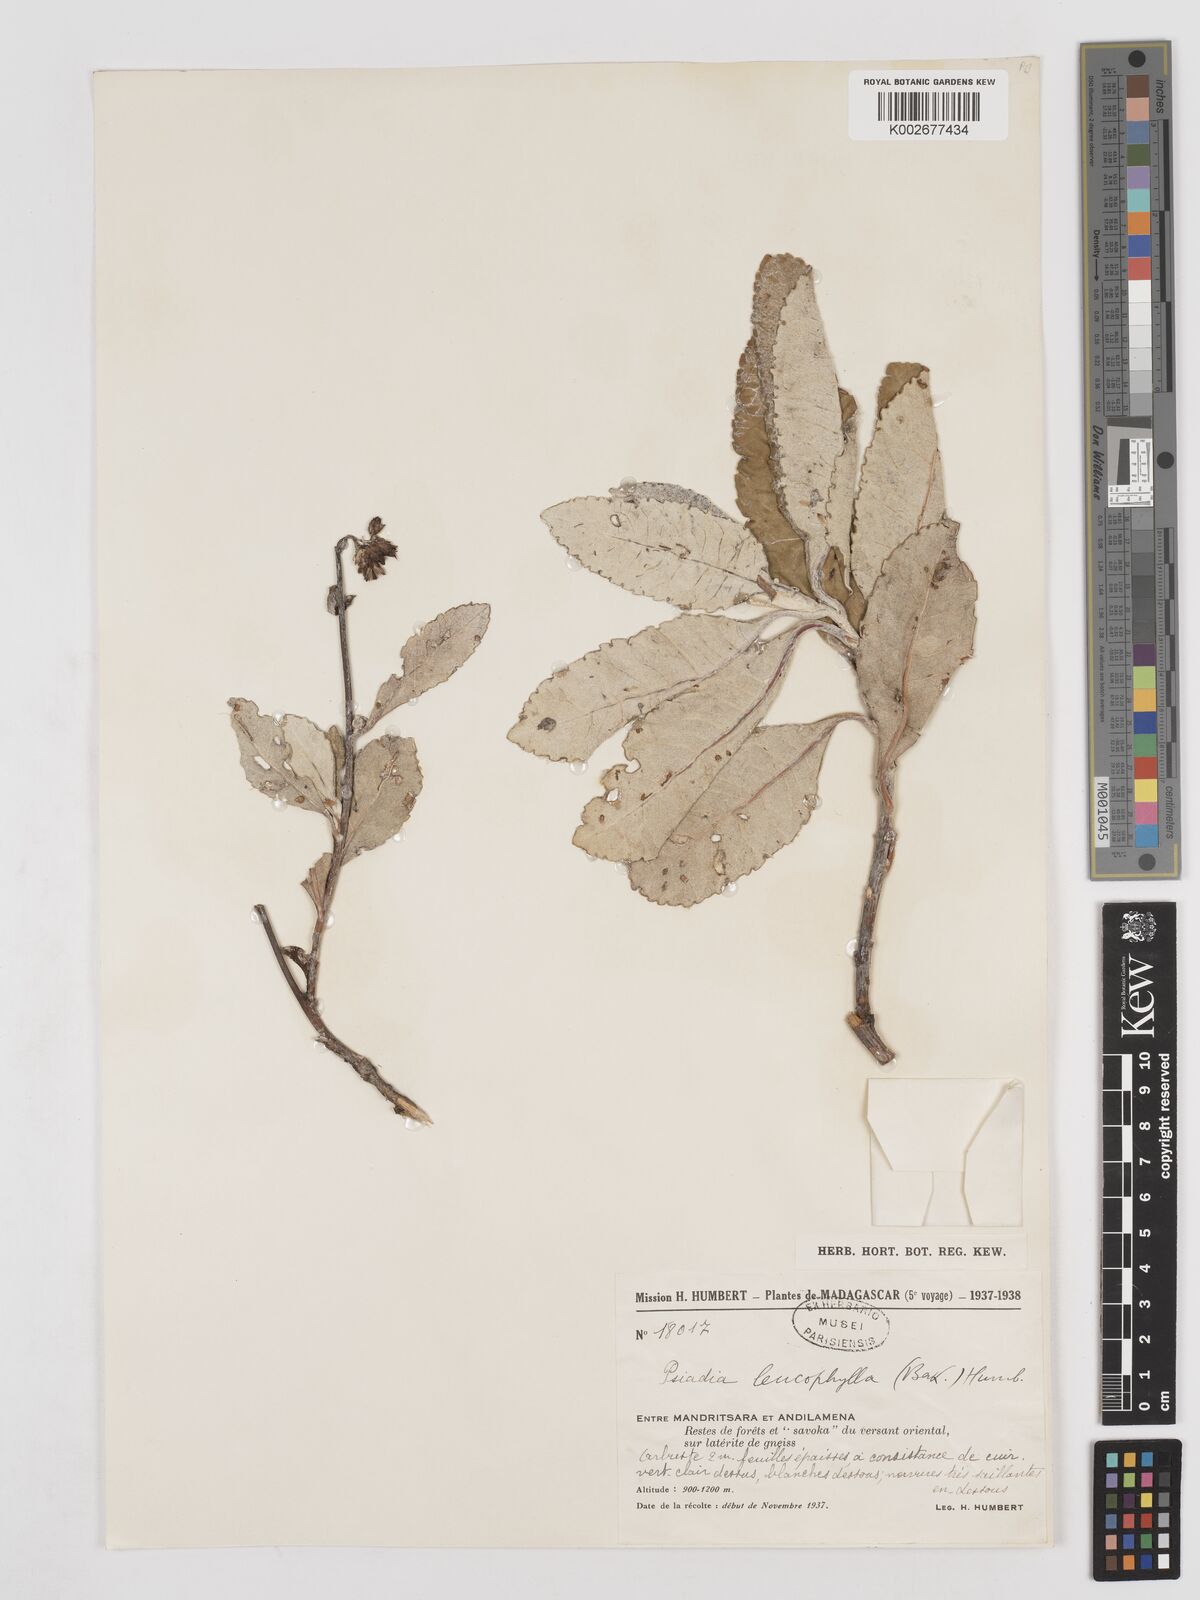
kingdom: Plantae
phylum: Tracheophyta
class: Magnoliopsida
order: Asterales
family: Asteraceae
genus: Psiadia
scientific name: Psiadia leucophylla
